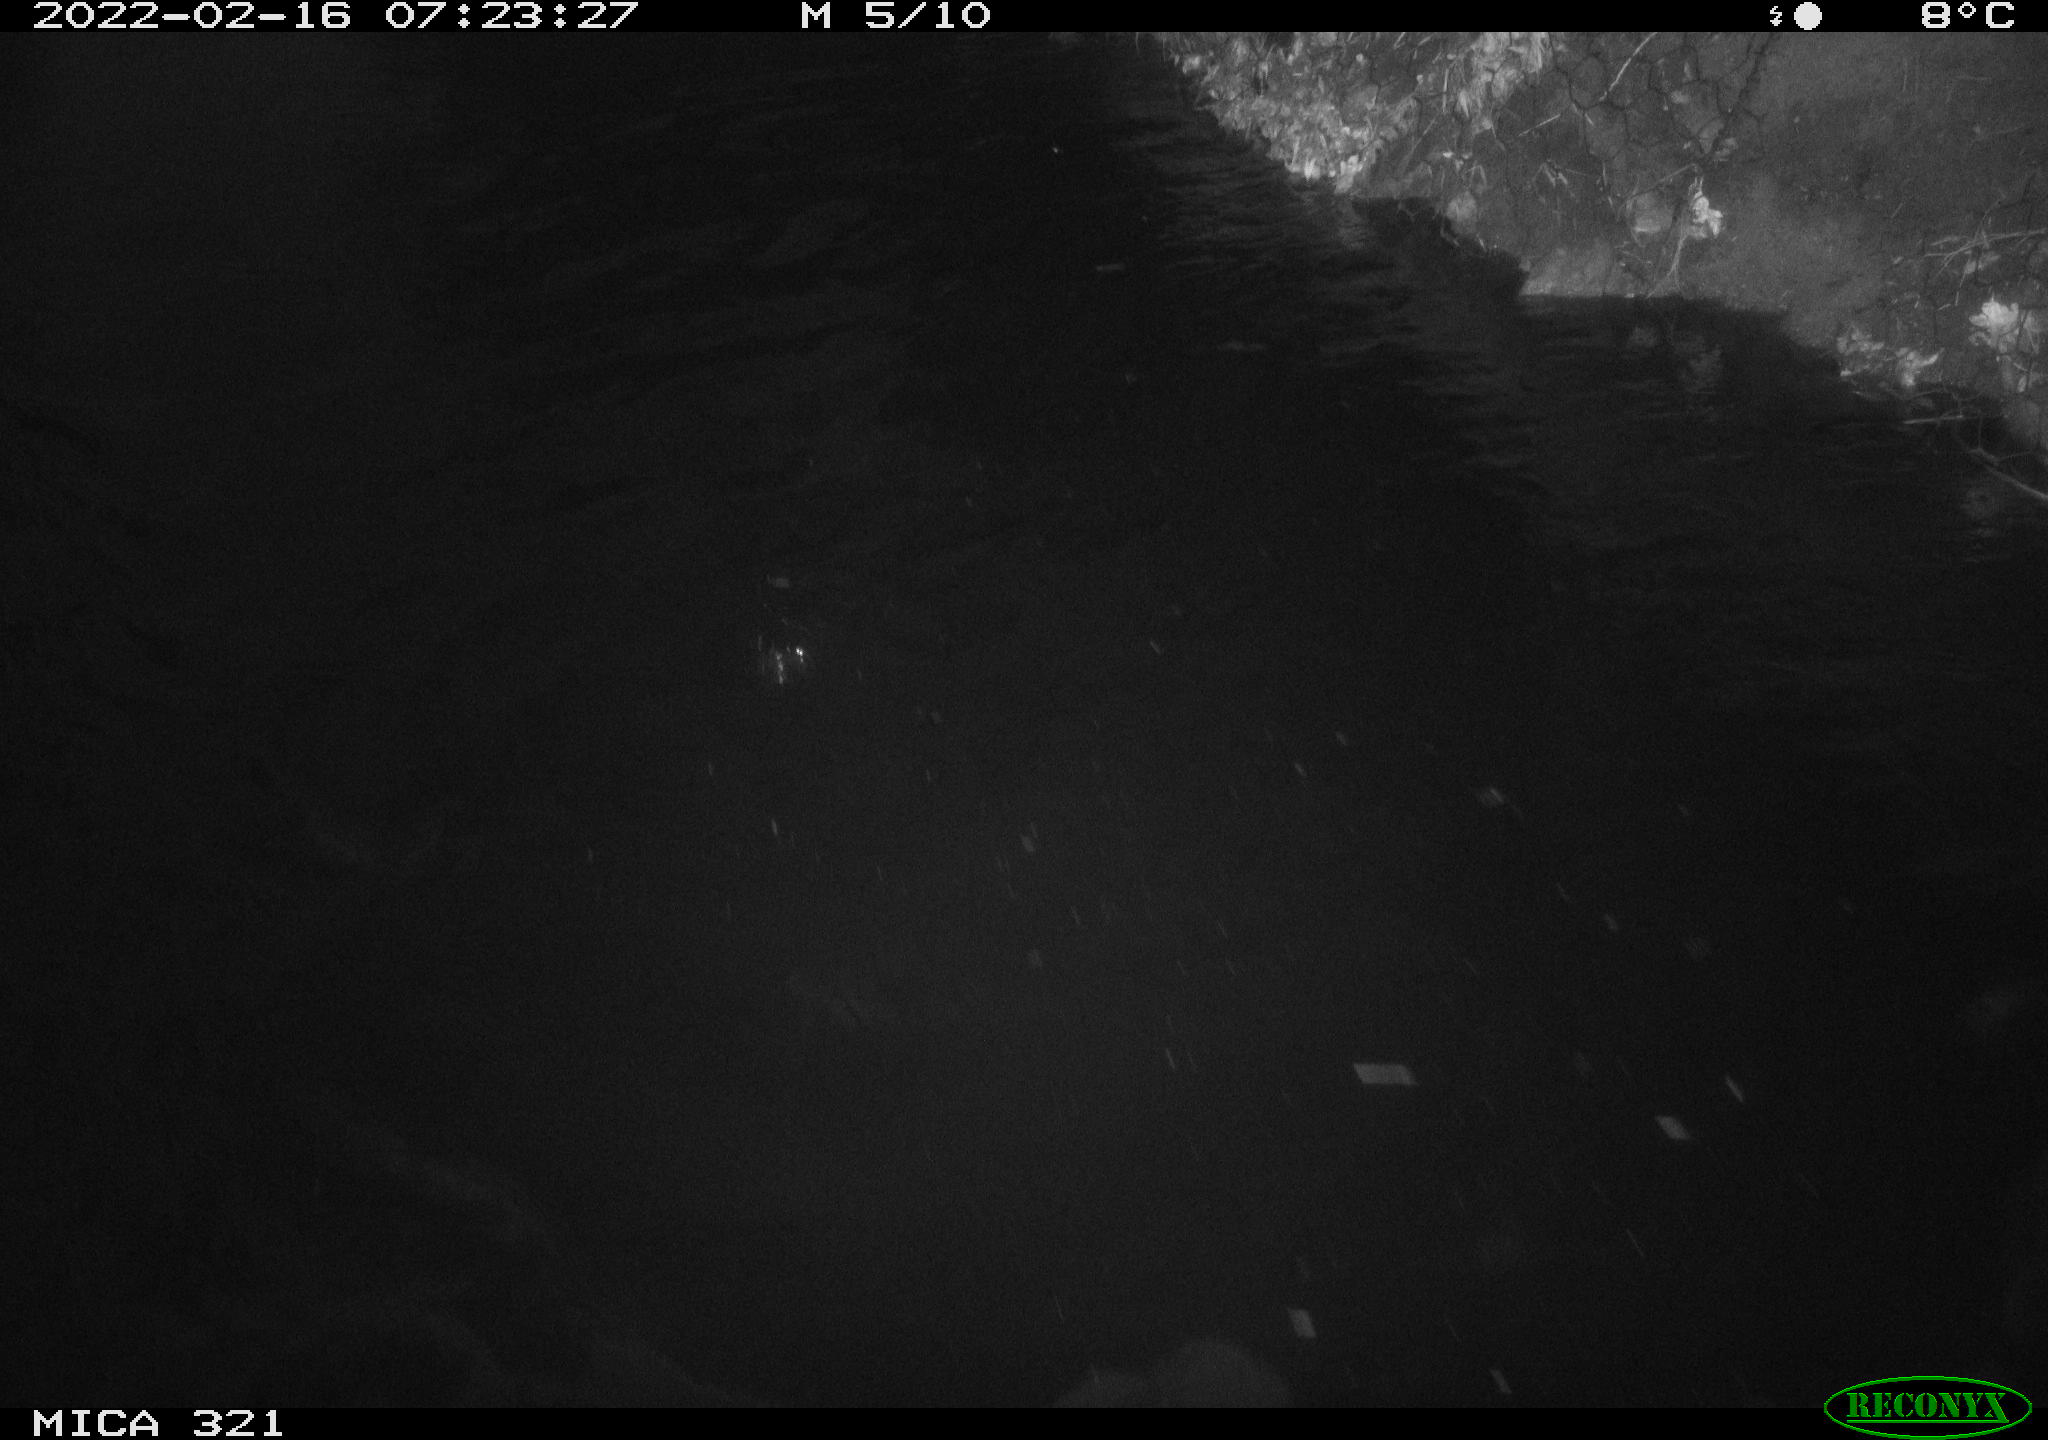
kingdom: Animalia
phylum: Chordata
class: Aves
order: Anseriformes
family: Anatidae
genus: Anas
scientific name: Anas platyrhynchos
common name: Mallard
